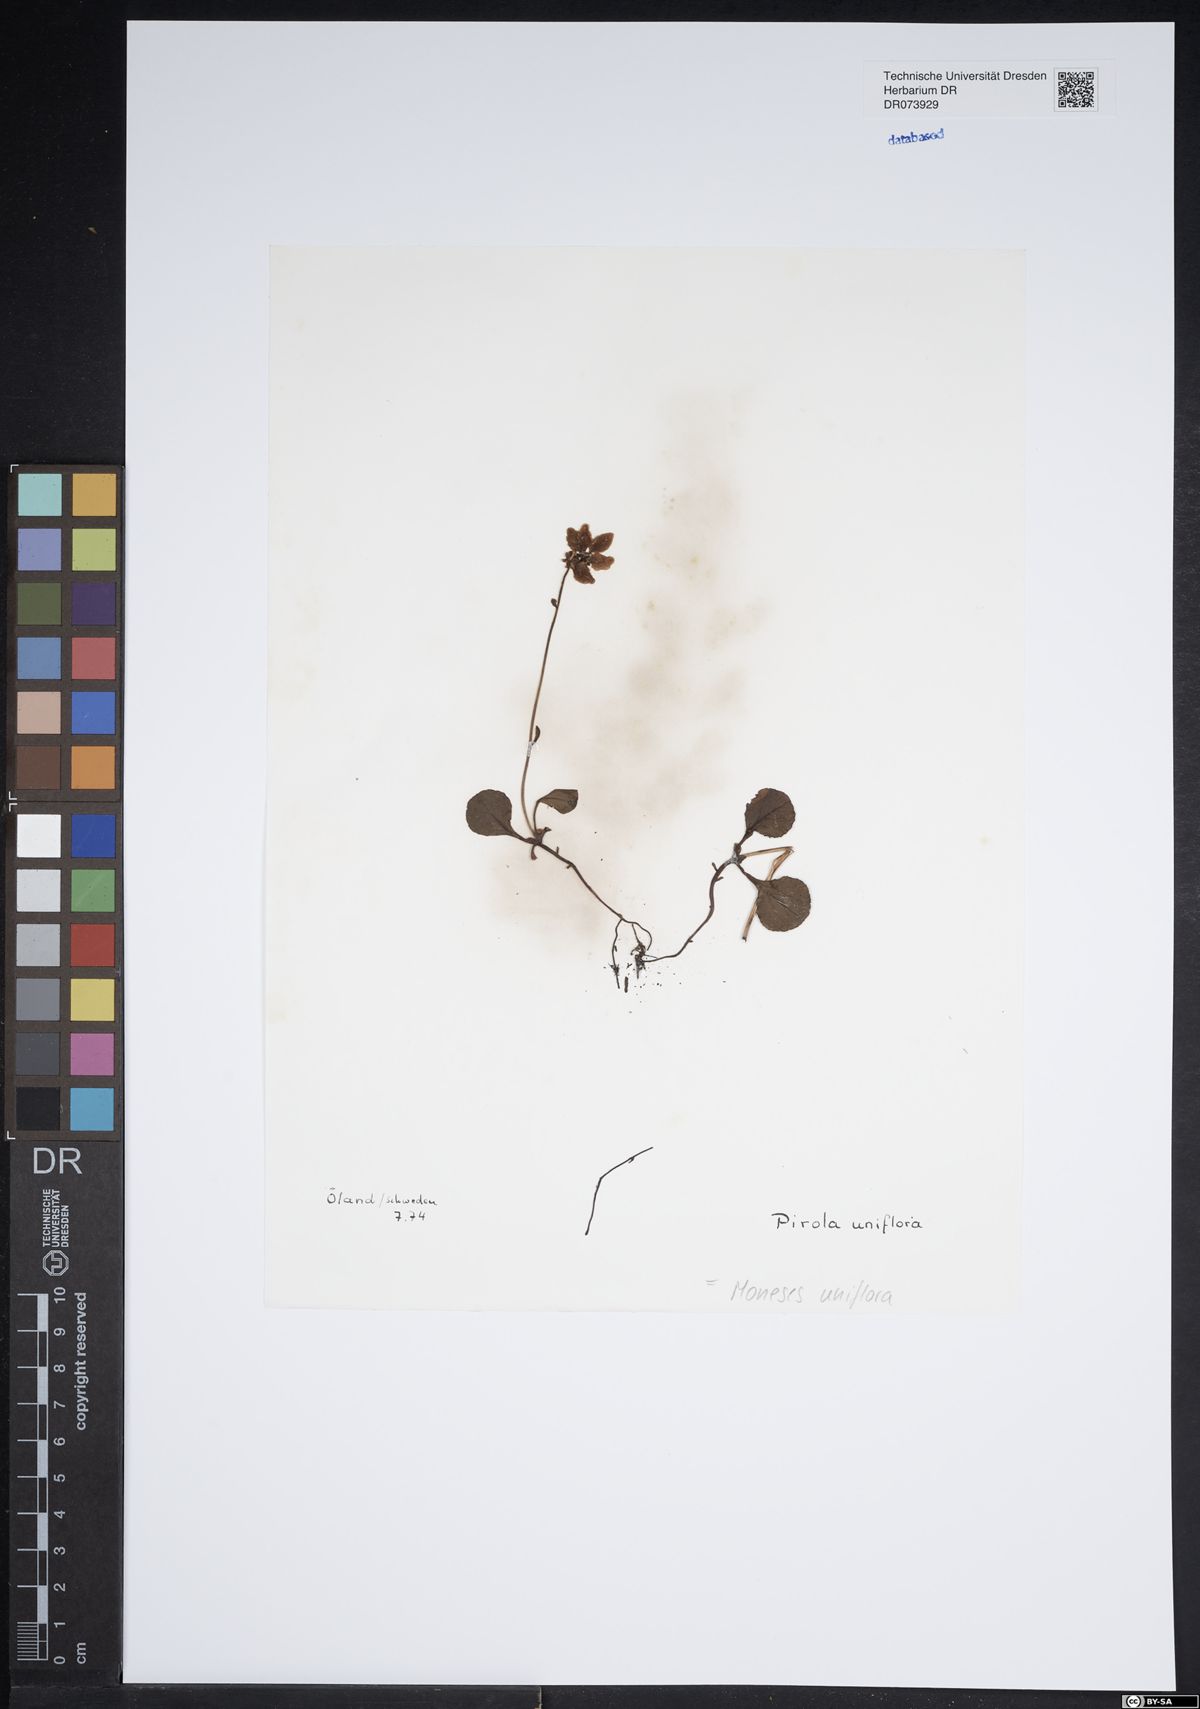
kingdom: Plantae
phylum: Tracheophyta
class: Magnoliopsida
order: Ericales
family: Ericaceae
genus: Moneses
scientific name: Moneses uniflora
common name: One-flowered wintergreen
